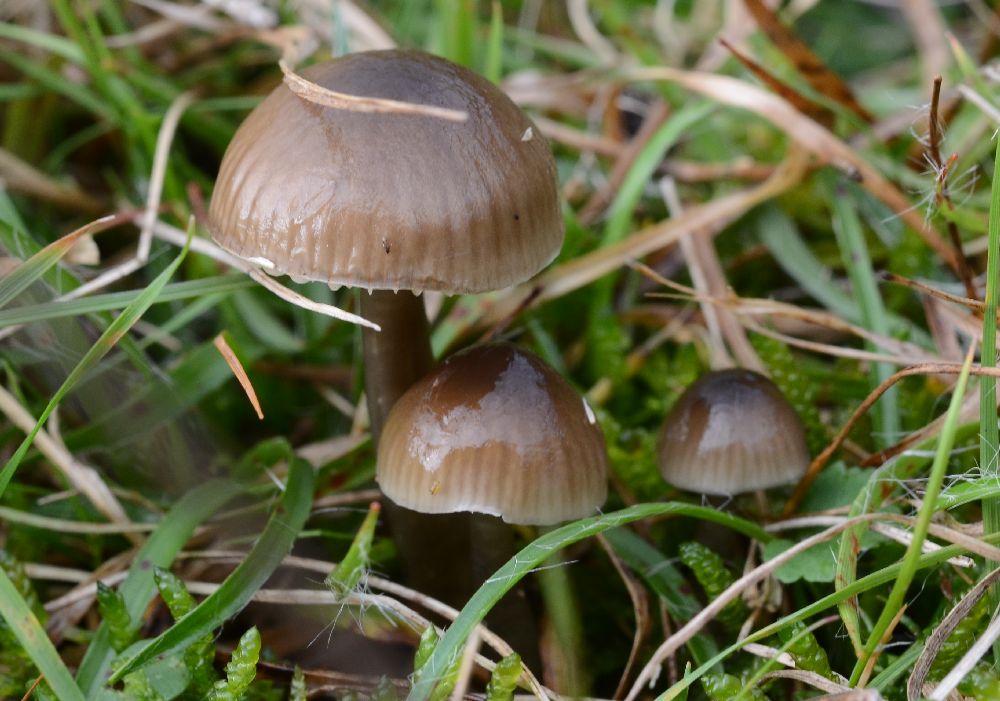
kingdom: Fungi
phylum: Basidiomycota
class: Agaricomycetes
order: Agaricales
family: Hygrophoraceae
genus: Gliophorus
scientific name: Gliophorus irrigatus
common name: slimet vokshat
